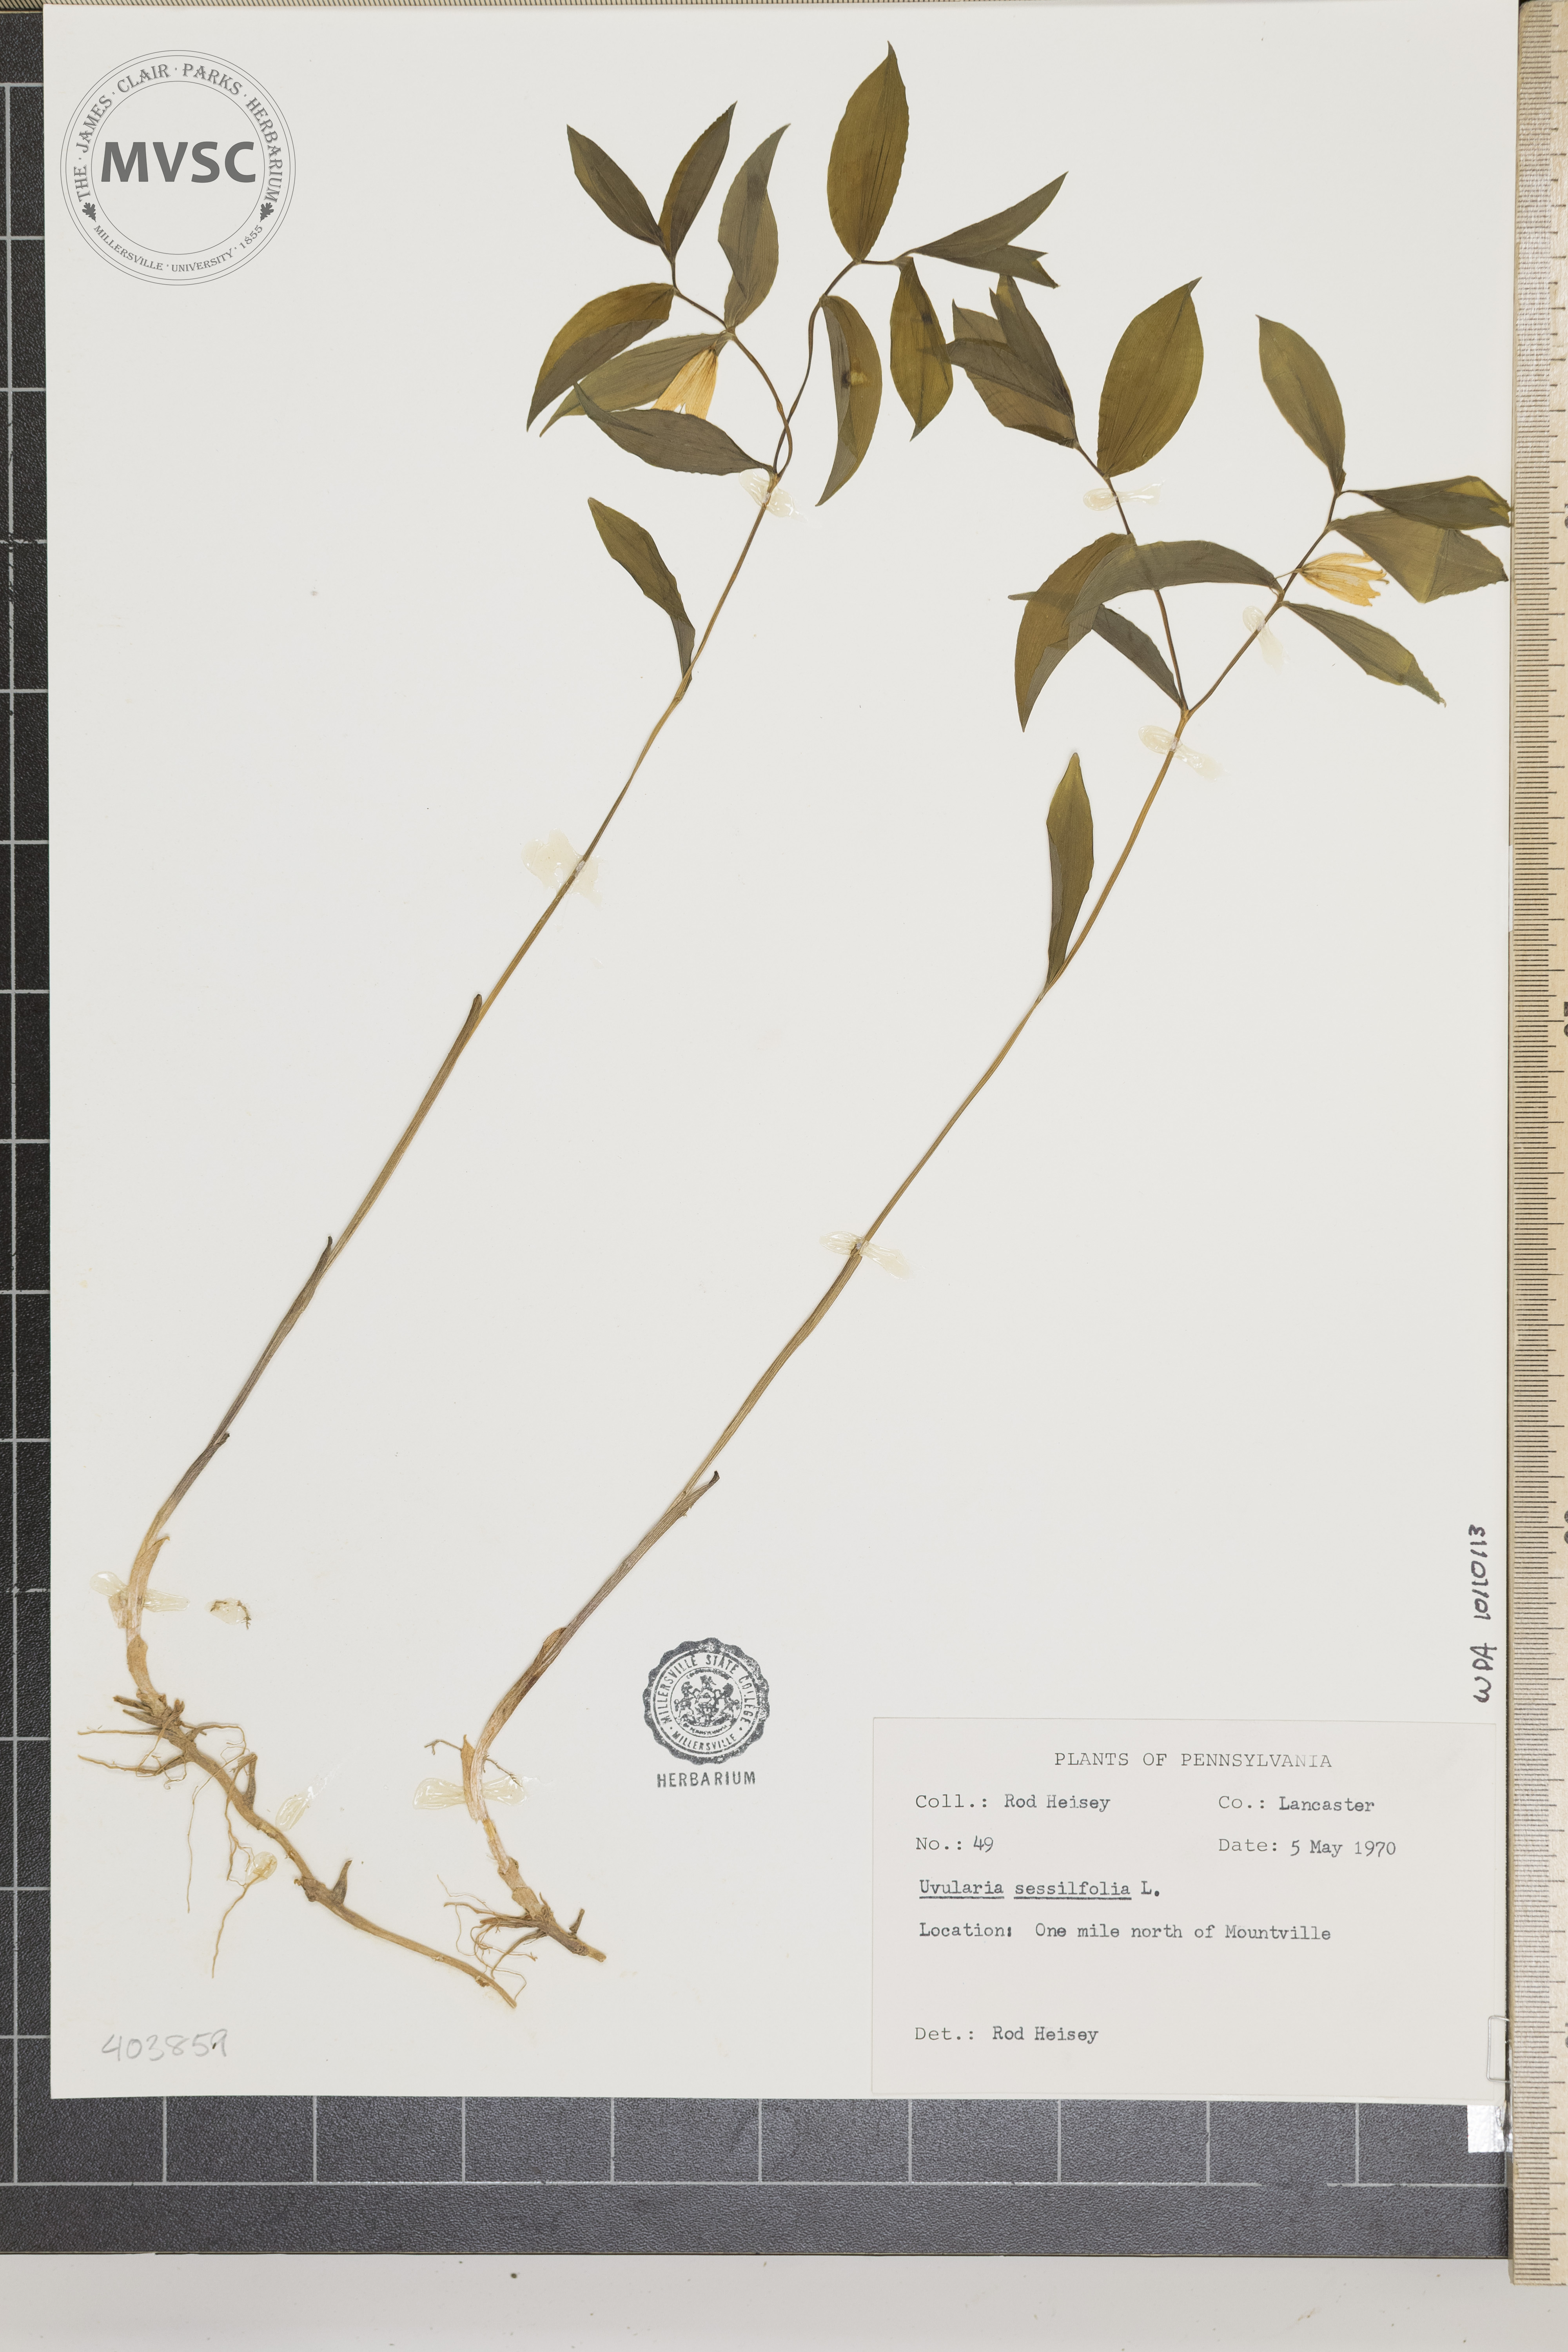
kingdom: Plantae
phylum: Tracheophyta
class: Liliopsida
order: Liliales
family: Colchicaceae
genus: Uvularia
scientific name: Uvularia sessilifolia
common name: Straw-lily
